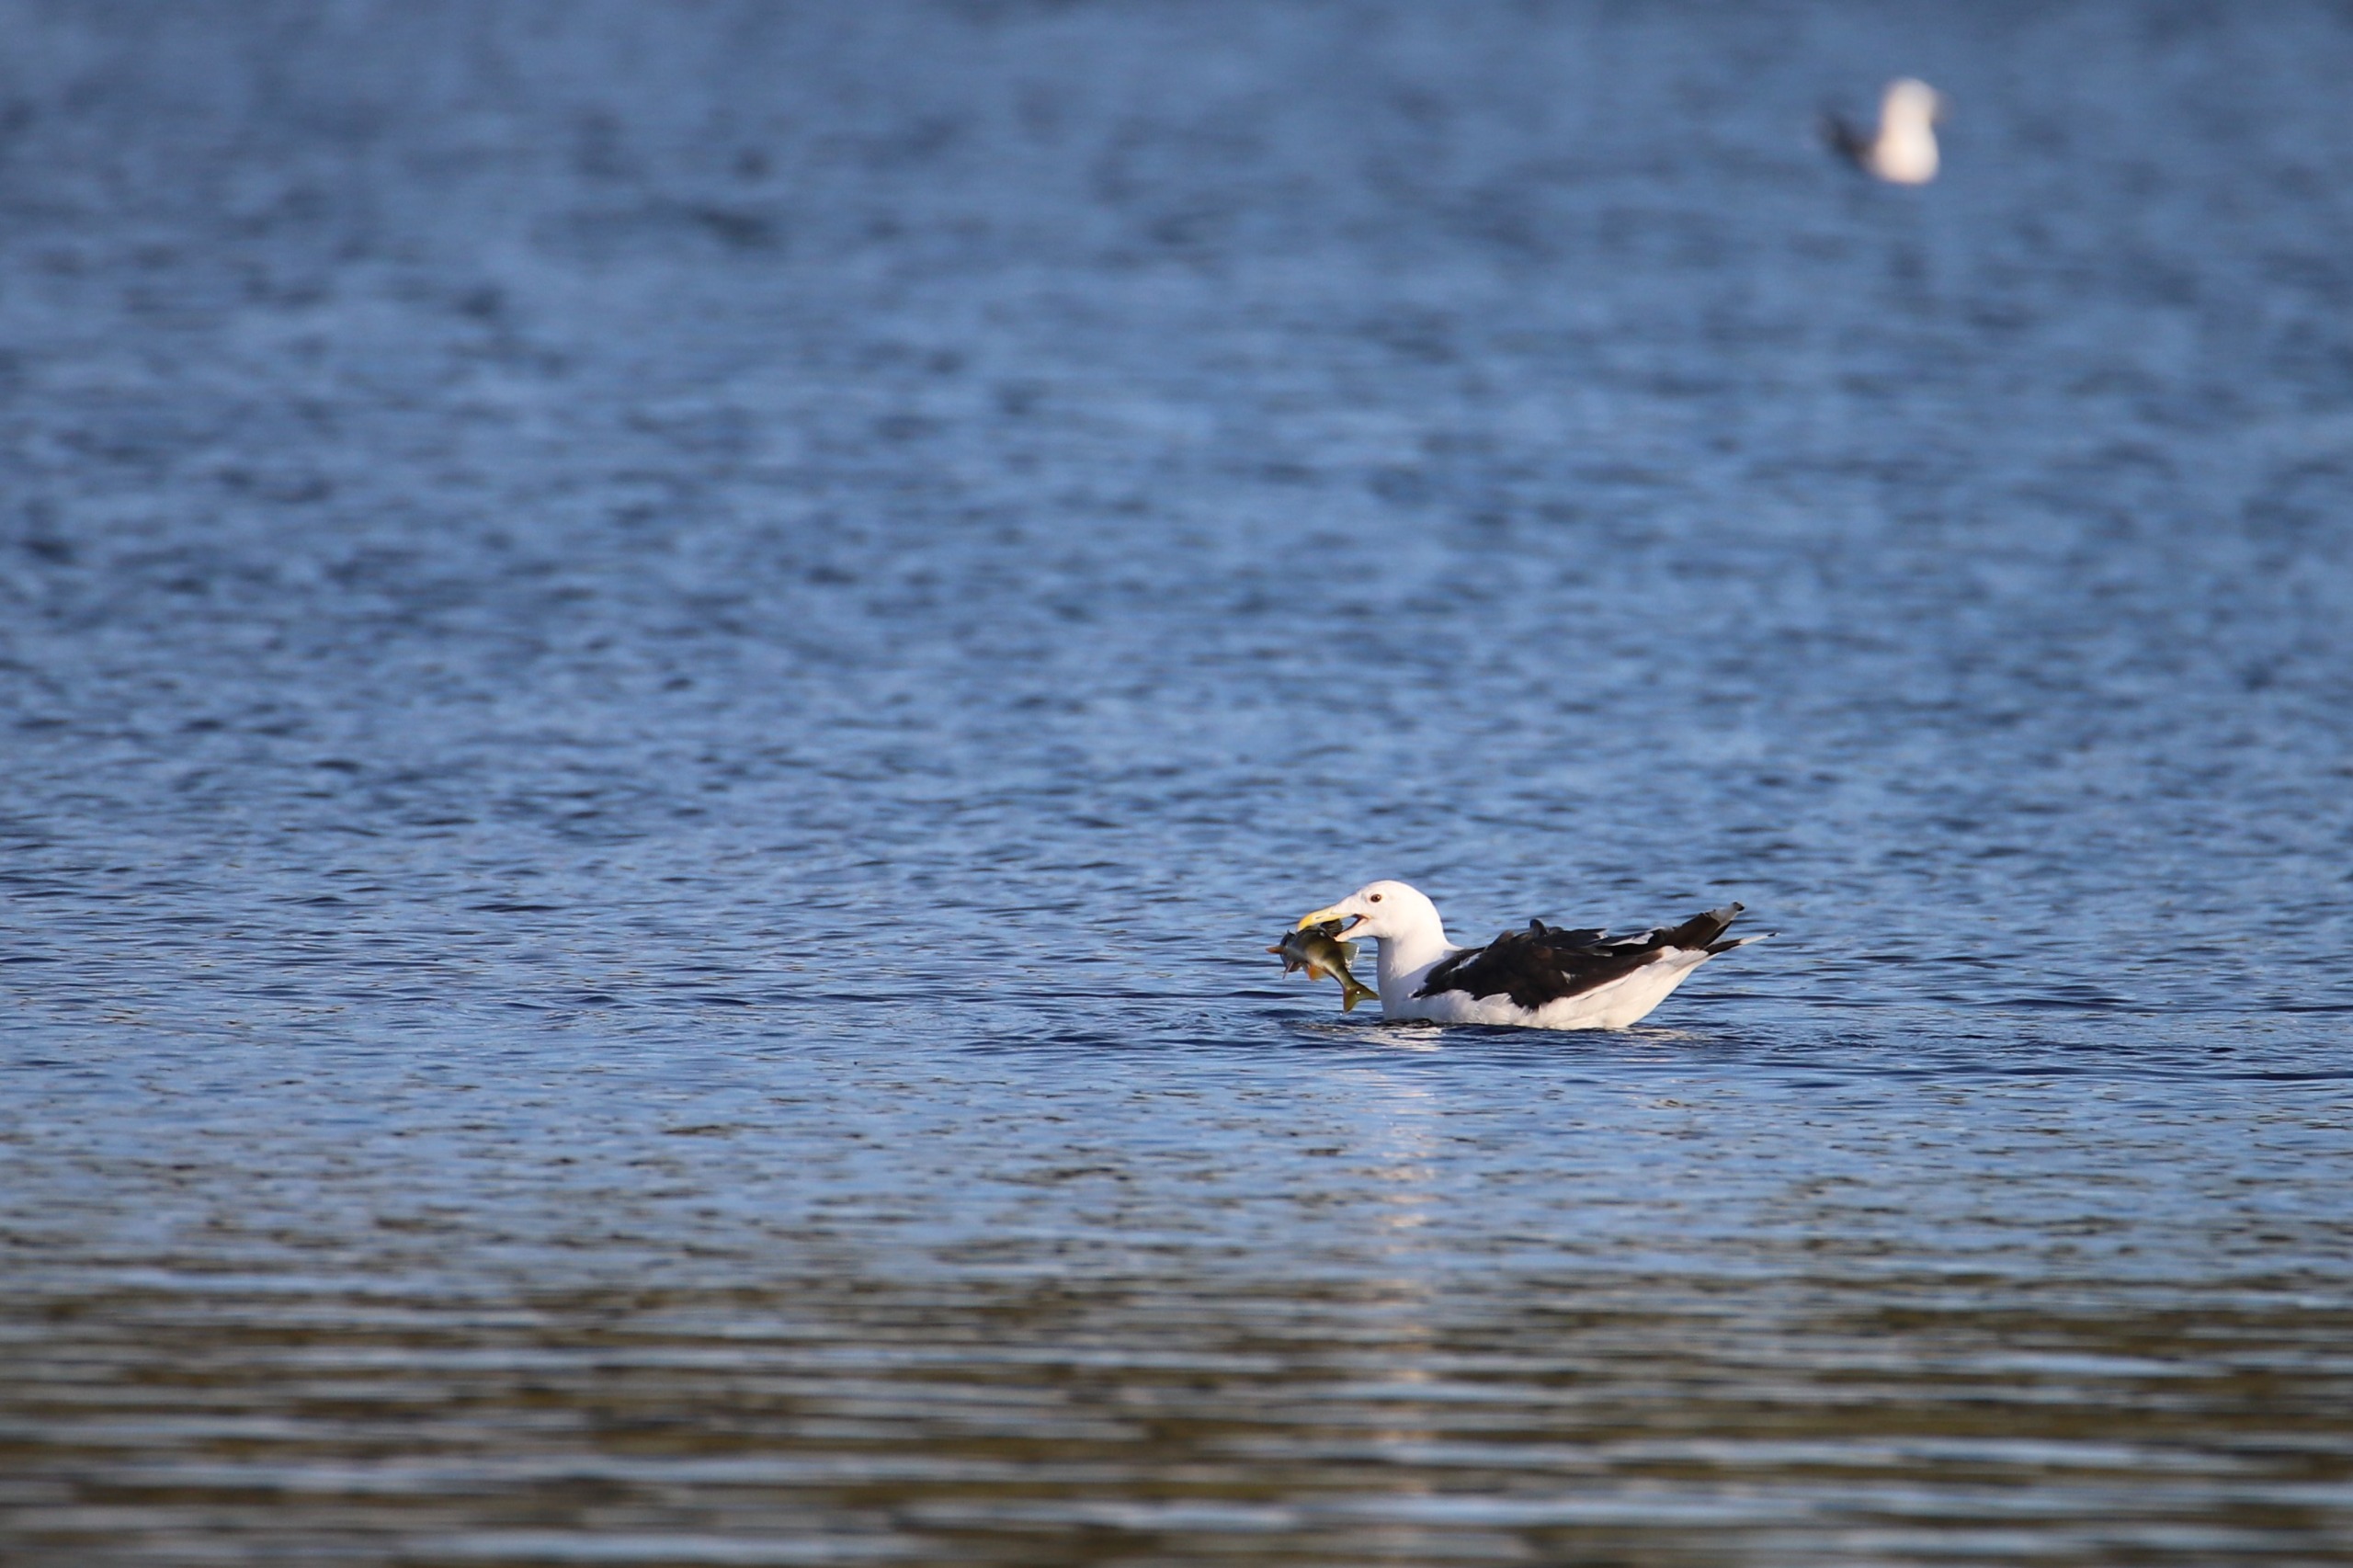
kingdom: Animalia
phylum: Chordata
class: Aves
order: Charadriiformes
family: Laridae
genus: Larus
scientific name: Larus marinus
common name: Svartbag
